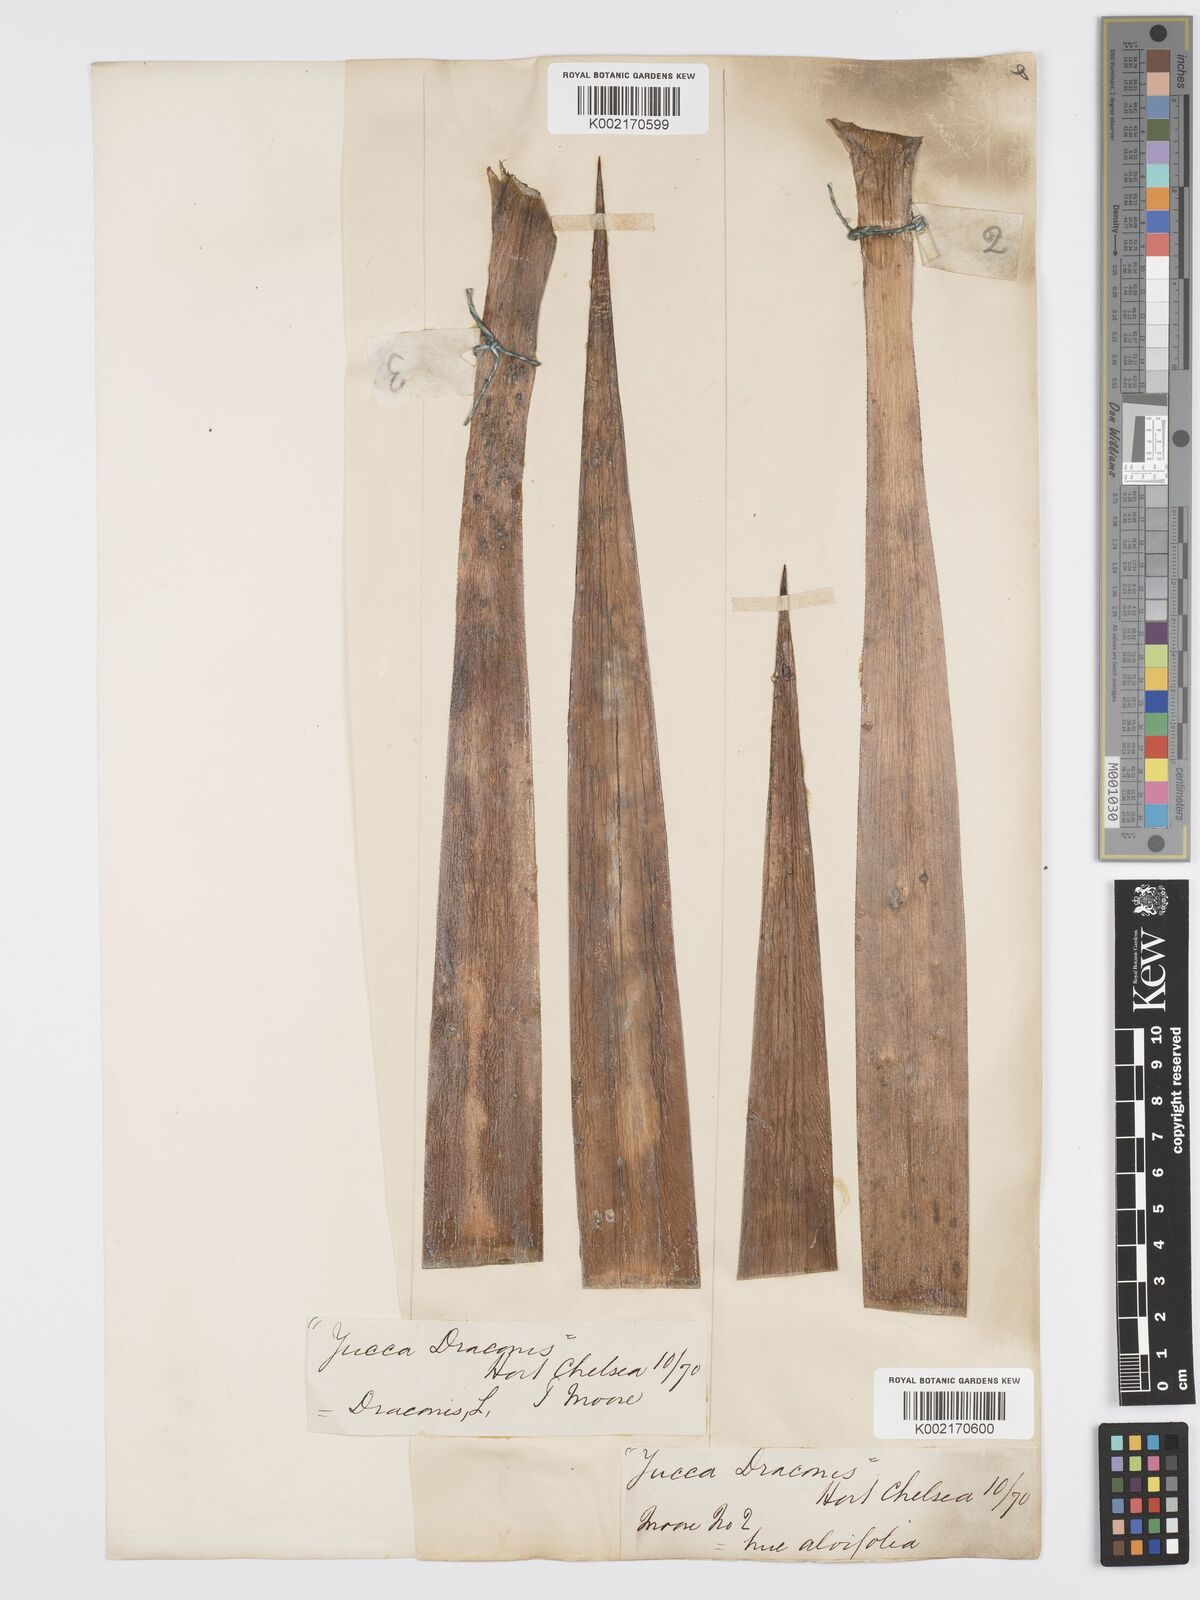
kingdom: Plantae
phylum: Tracheophyta
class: Liliopsida
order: Asparagales
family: Asparagaceae
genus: Yucca
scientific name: Yucca aloifolia
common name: Aloe yucca
